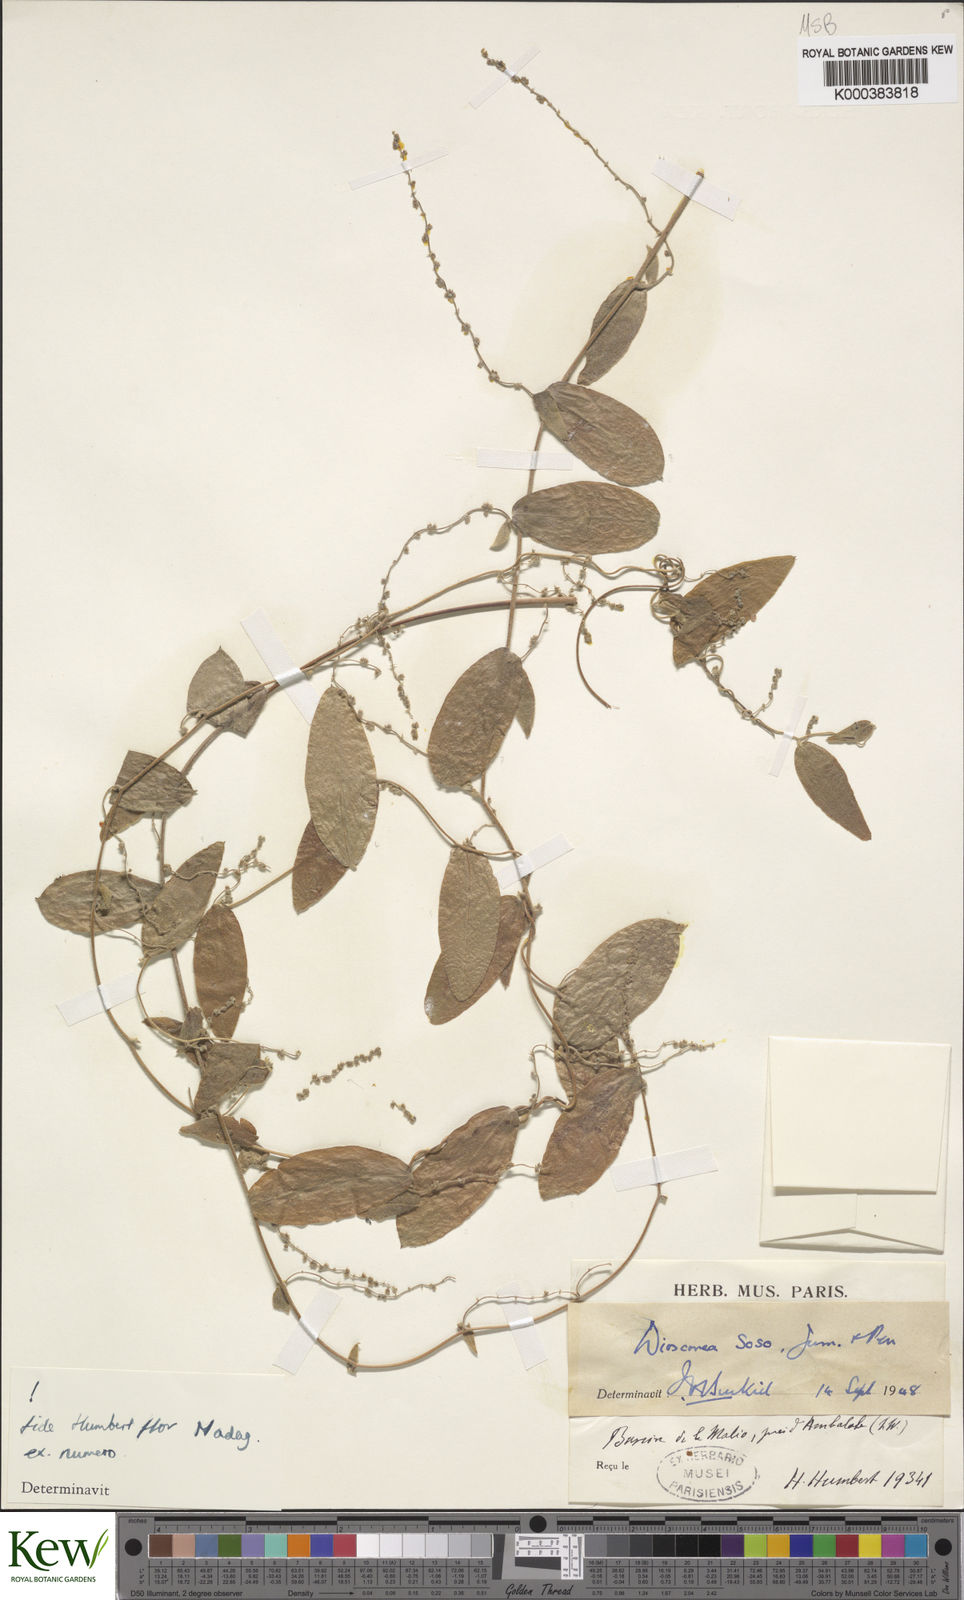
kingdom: Plantae
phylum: Tracheophyta
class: Liliopsida
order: Dioscoreales
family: Dioscoreaceae
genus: Dioscorea
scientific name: Dioscorea
